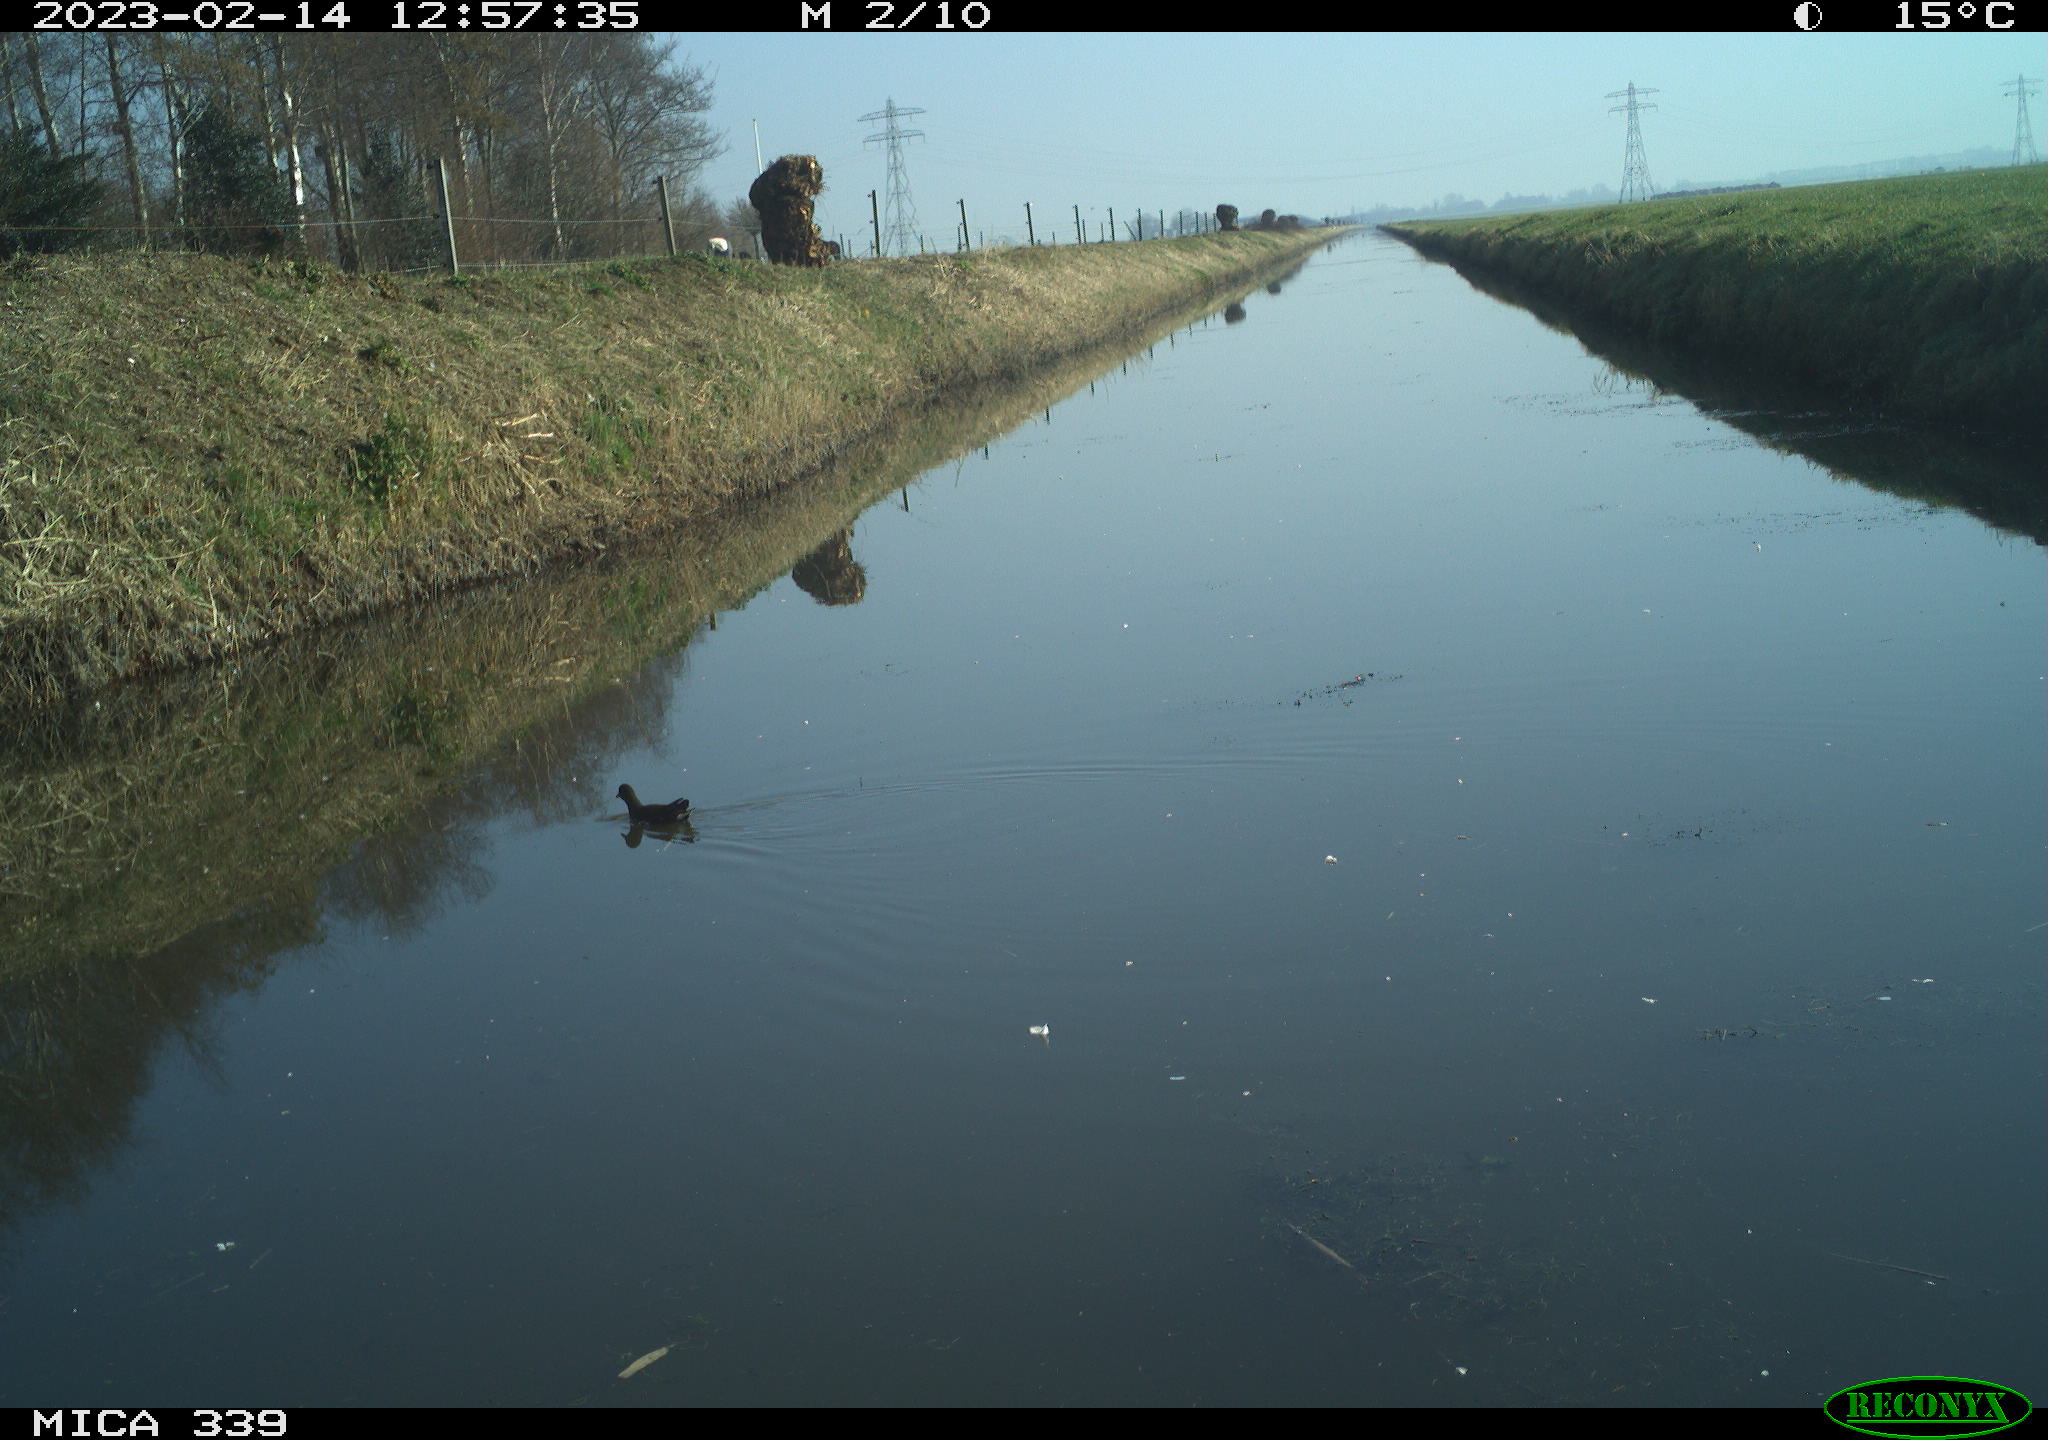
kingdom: Animalia
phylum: Chordata
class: Aves
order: Gruiformes
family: Rallidae
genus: Gallinula
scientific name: Gallinula chloropus
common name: Common moorhen
